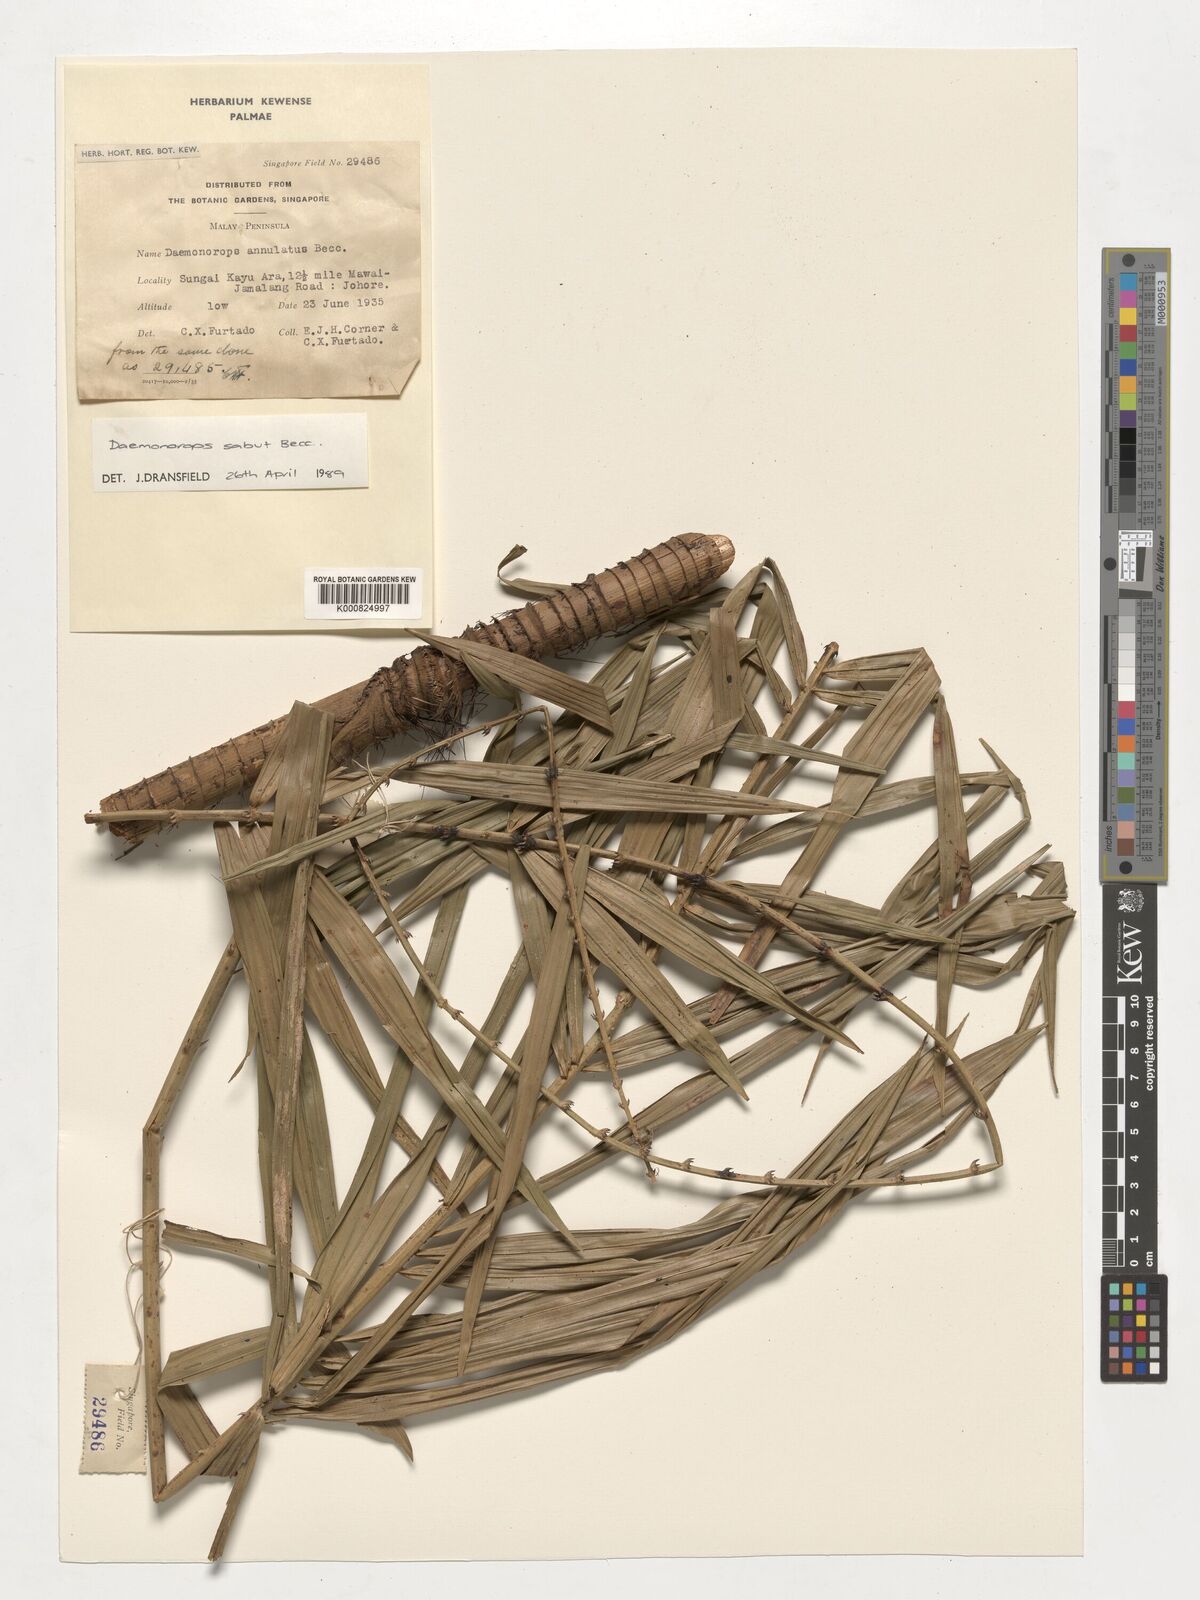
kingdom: Plantae
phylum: Tracheophyta
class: Liliopsida
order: Arecales
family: Arecaceae
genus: Calamus
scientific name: Calamus crinitus
